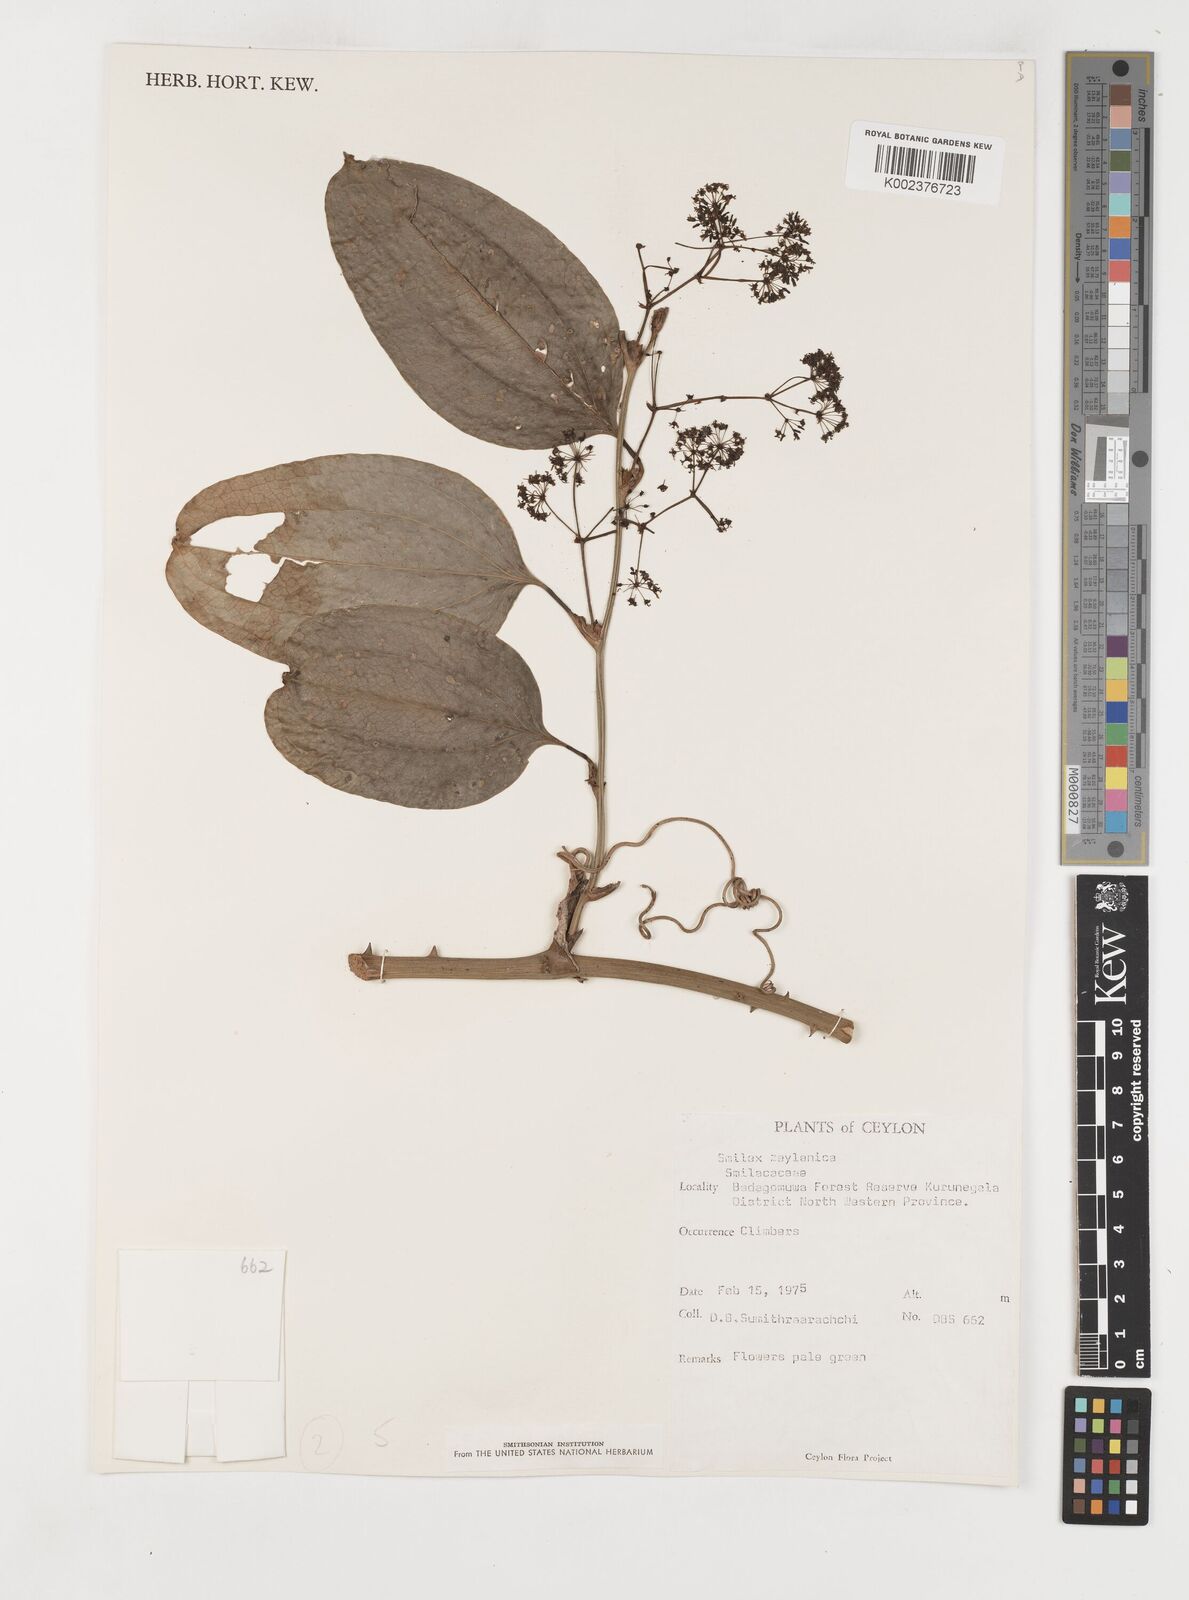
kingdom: Plantae
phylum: Tracheophyta
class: Liliopsida
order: Liliales
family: Smilacaceae
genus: Smilax
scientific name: Smilax zeylanica
